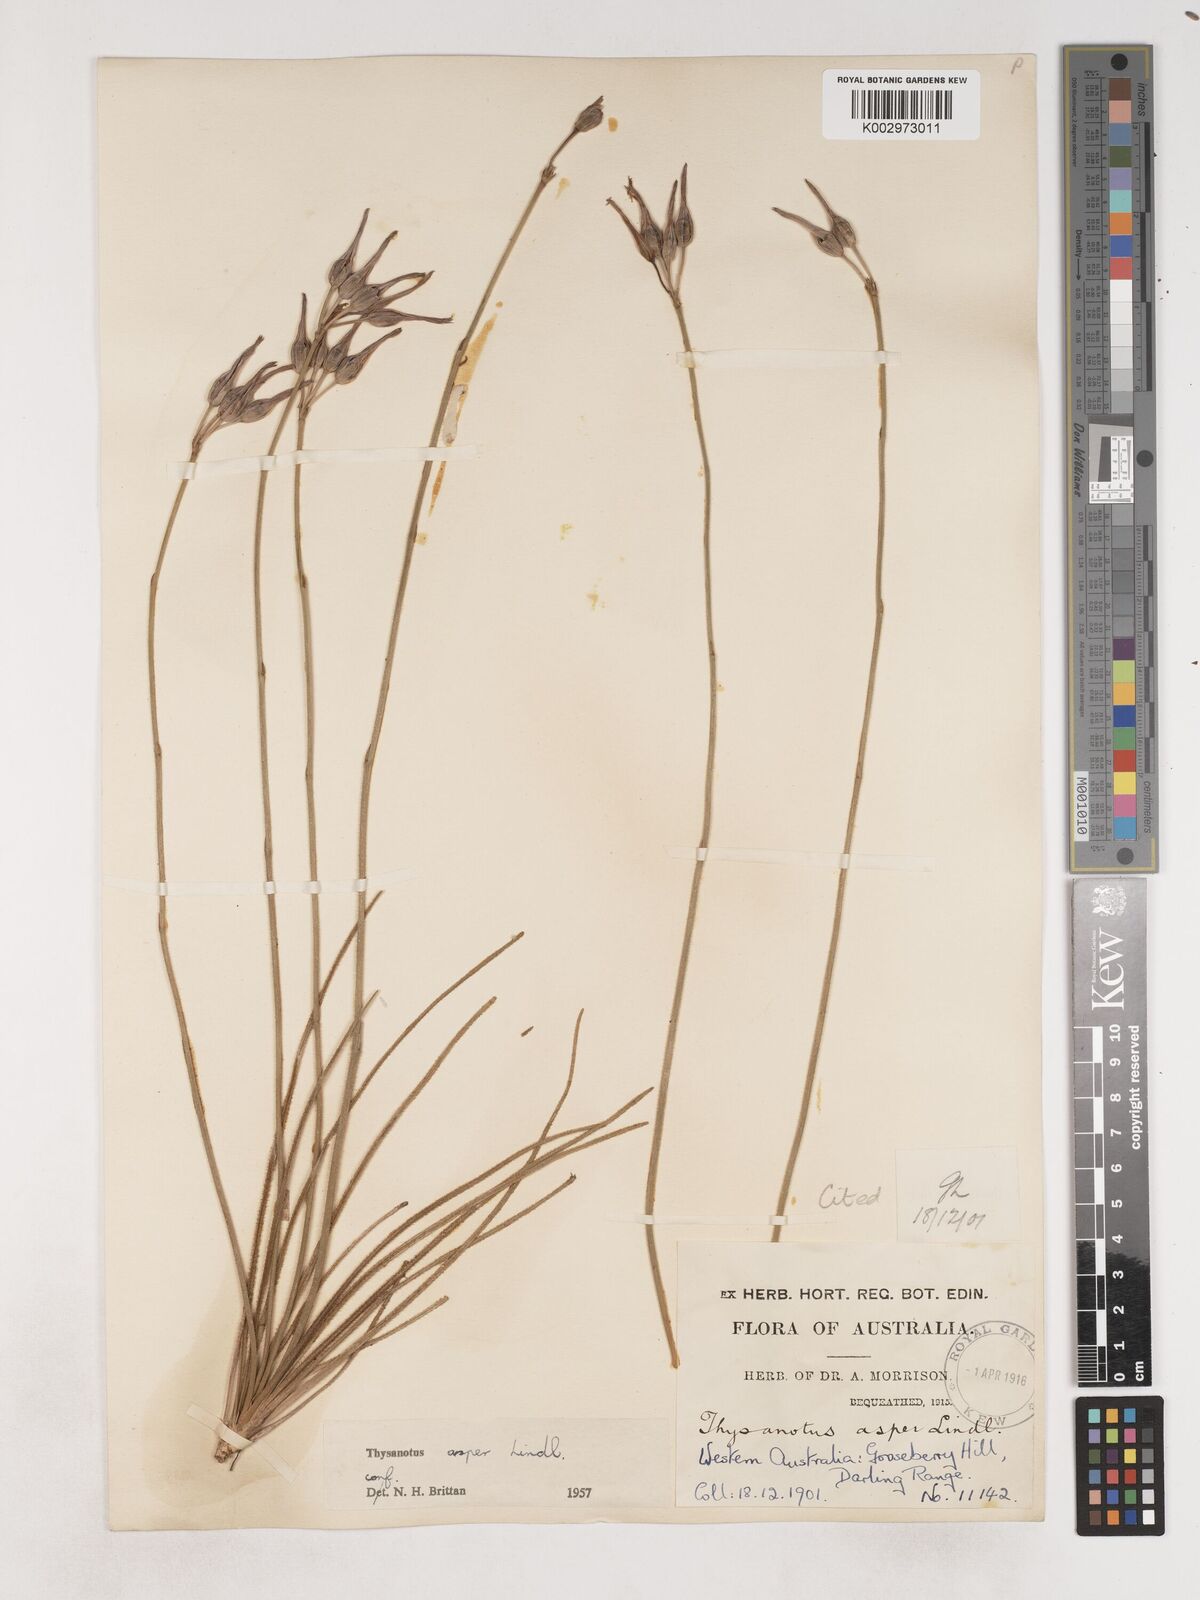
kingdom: Plantae
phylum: Tracheophyta
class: Liliopsida
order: Asparagales
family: Asparagaceae
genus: Thysanotus
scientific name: Thysanotus asper
